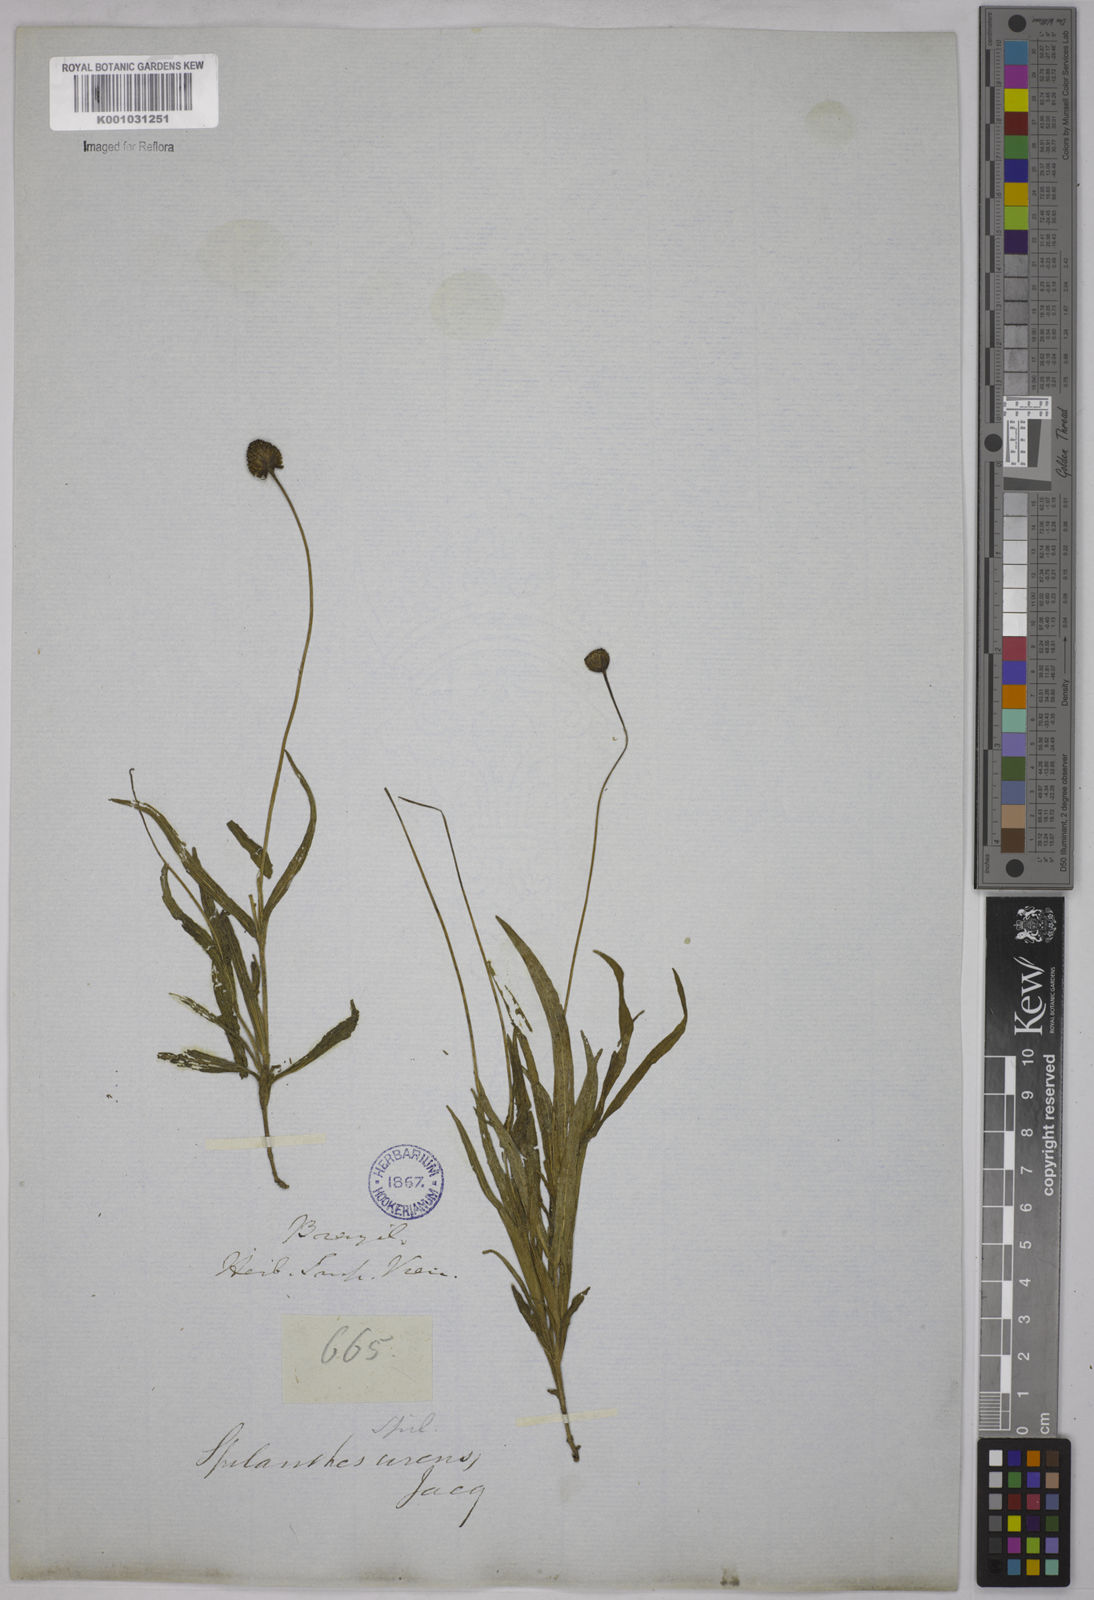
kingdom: Plantae
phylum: Tracheophyta
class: Magnoliopsida
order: Asterales
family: Asteraceae
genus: Spilanthes
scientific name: Spilanthes urens
